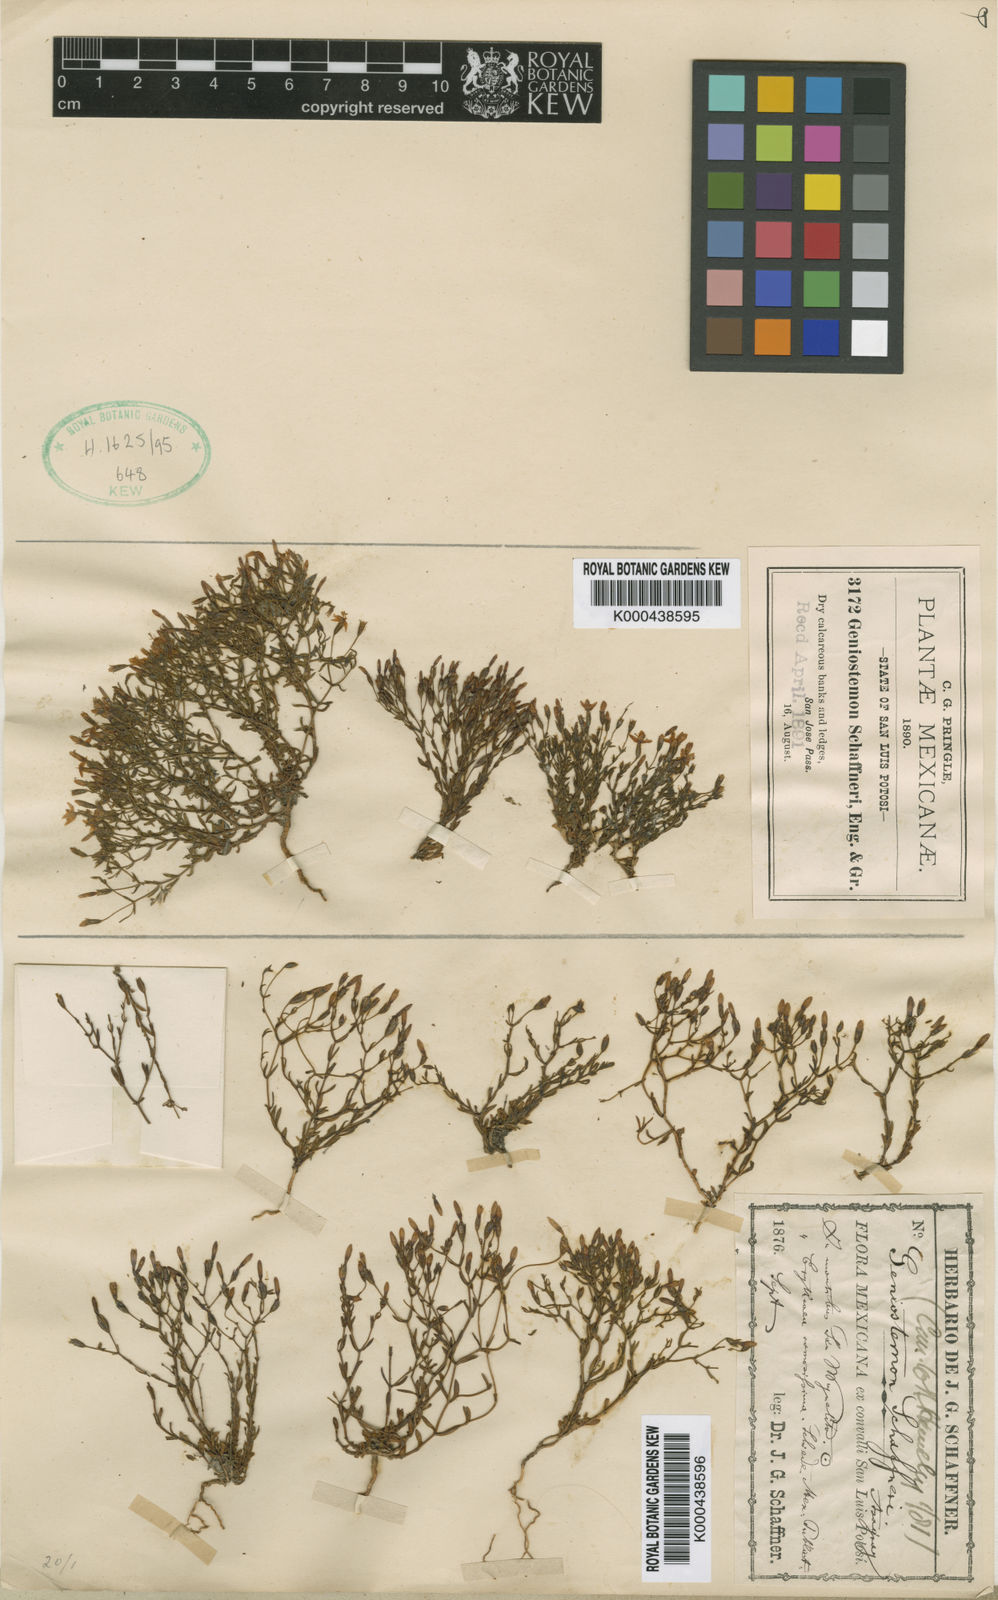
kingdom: Plantae
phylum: Tracheophyta
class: Magnoliopsida
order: Gentianales
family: Gentianaceae
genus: Geniostemon
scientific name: Geniostemon schaffneri
